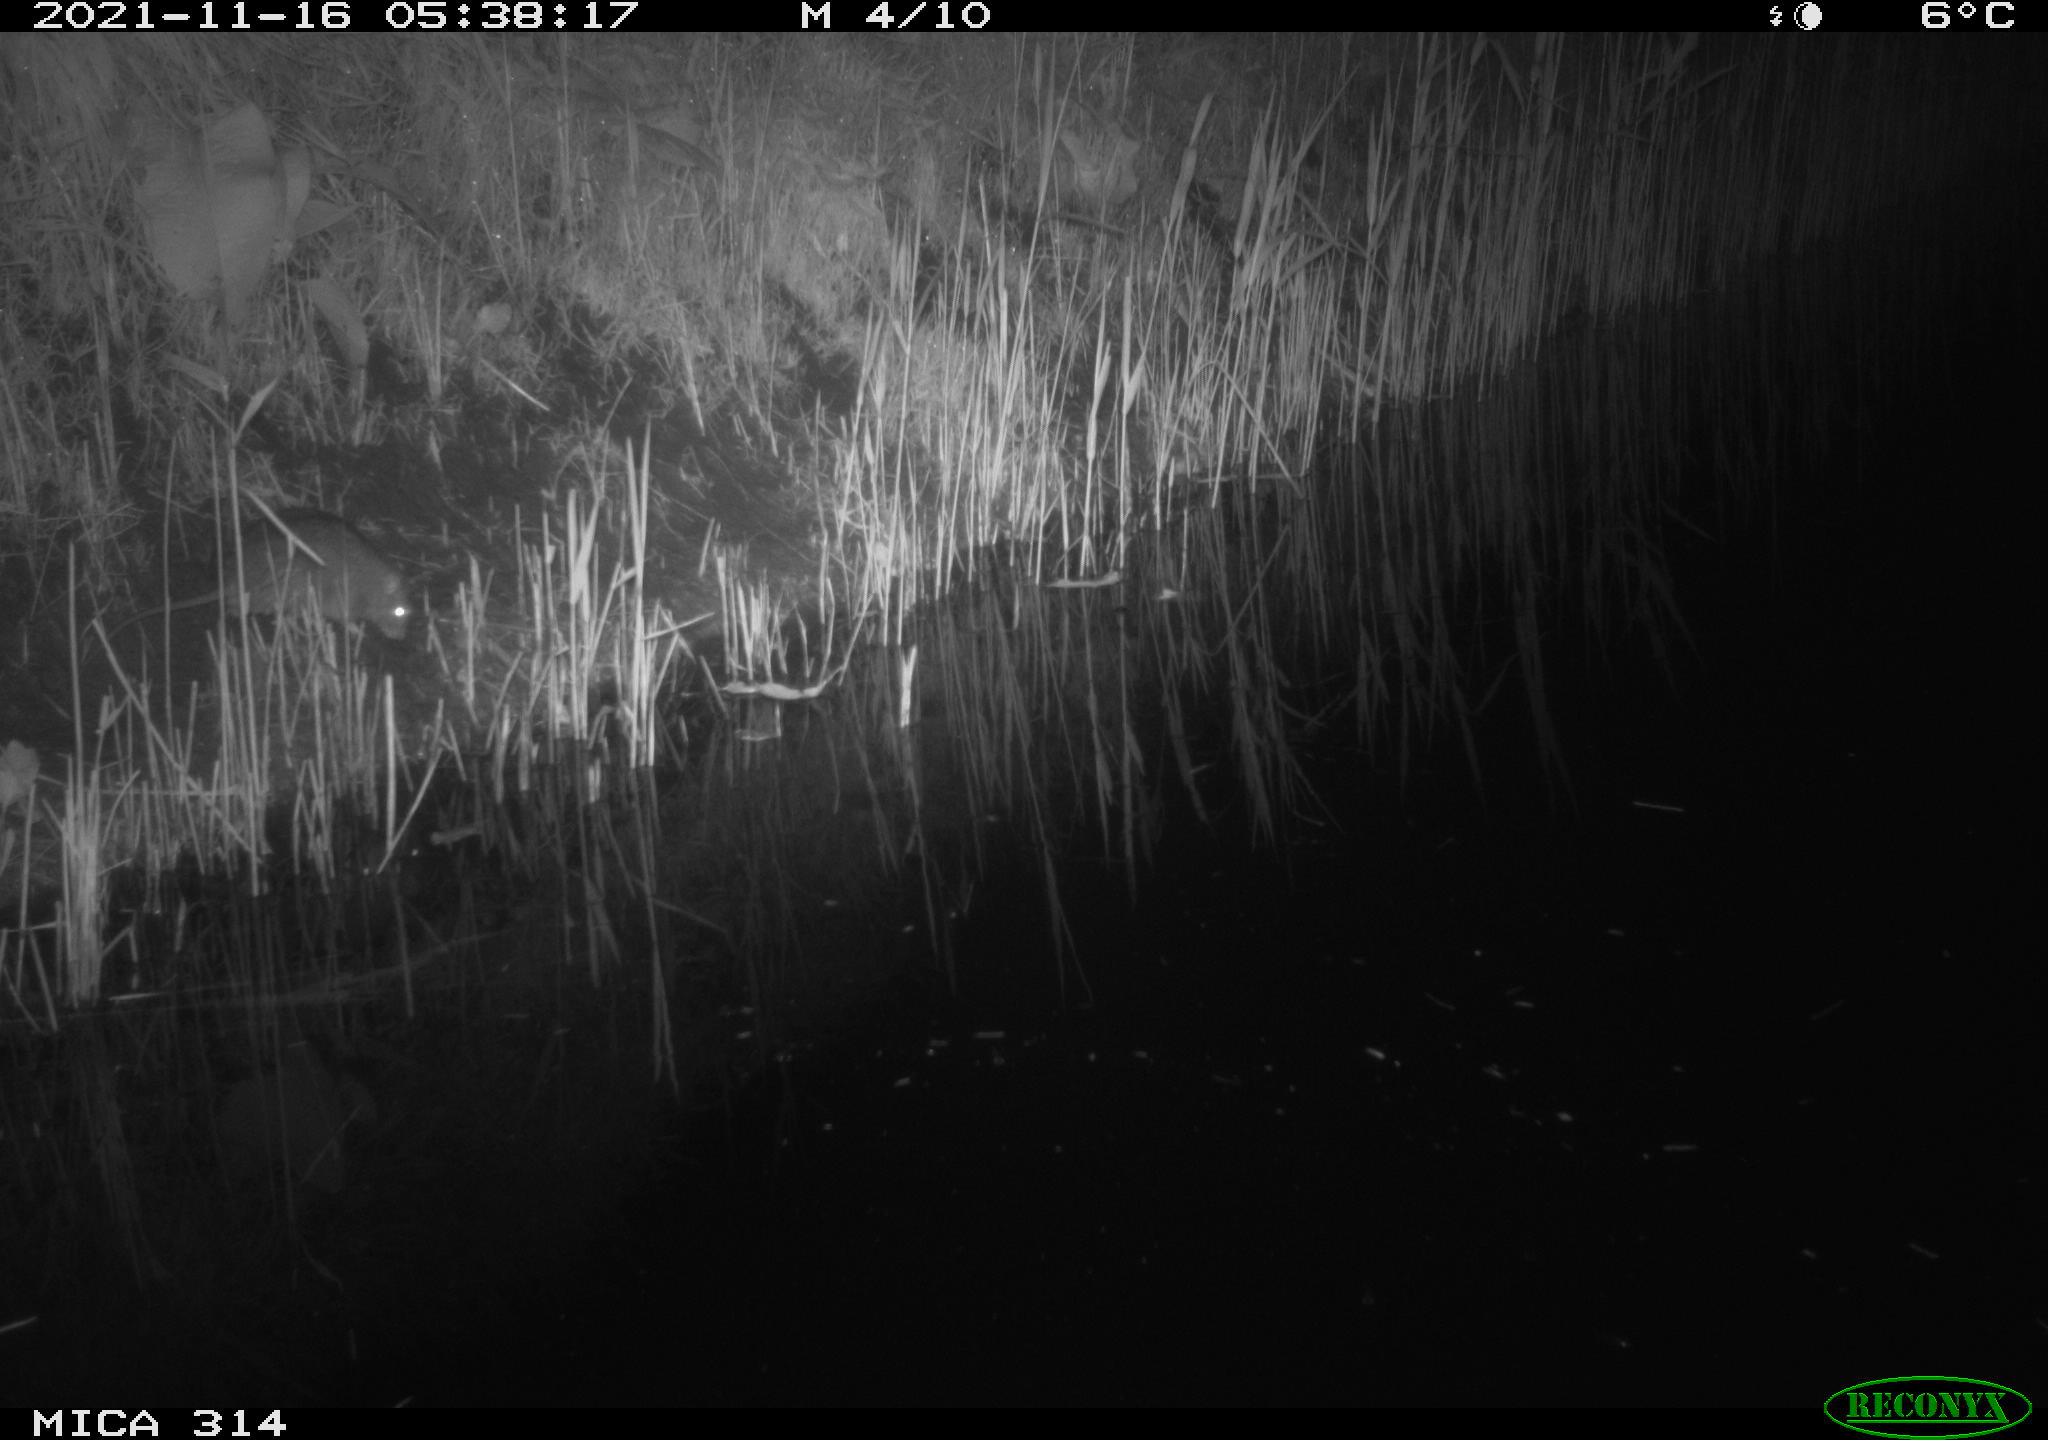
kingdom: Animalia
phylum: Chordata
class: Mammalia
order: Rodentia
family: Muridae
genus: Rattus
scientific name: Rattus norvegicus
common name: Brown rat
